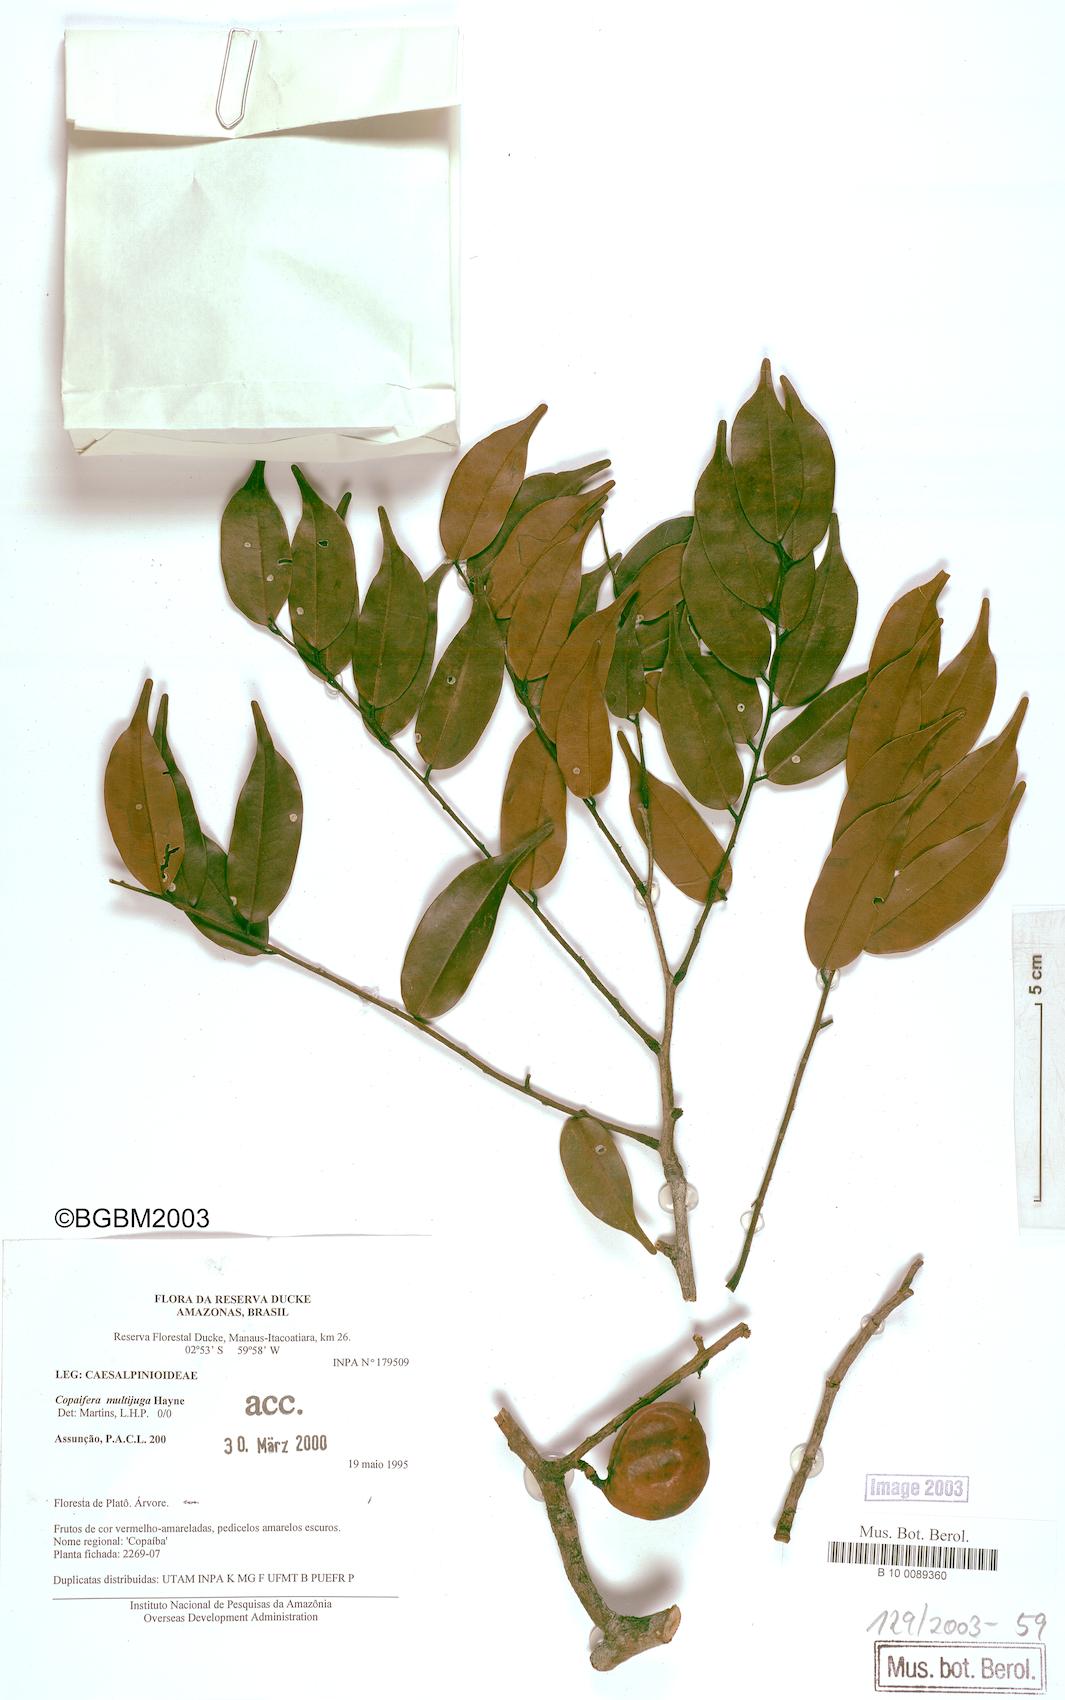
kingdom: Plantae
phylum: Tracheophyta
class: Magnoliopsida
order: Fabales
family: Fabaceae
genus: Copaifera
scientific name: Copaifera multijuga
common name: Brazilian copaiba
